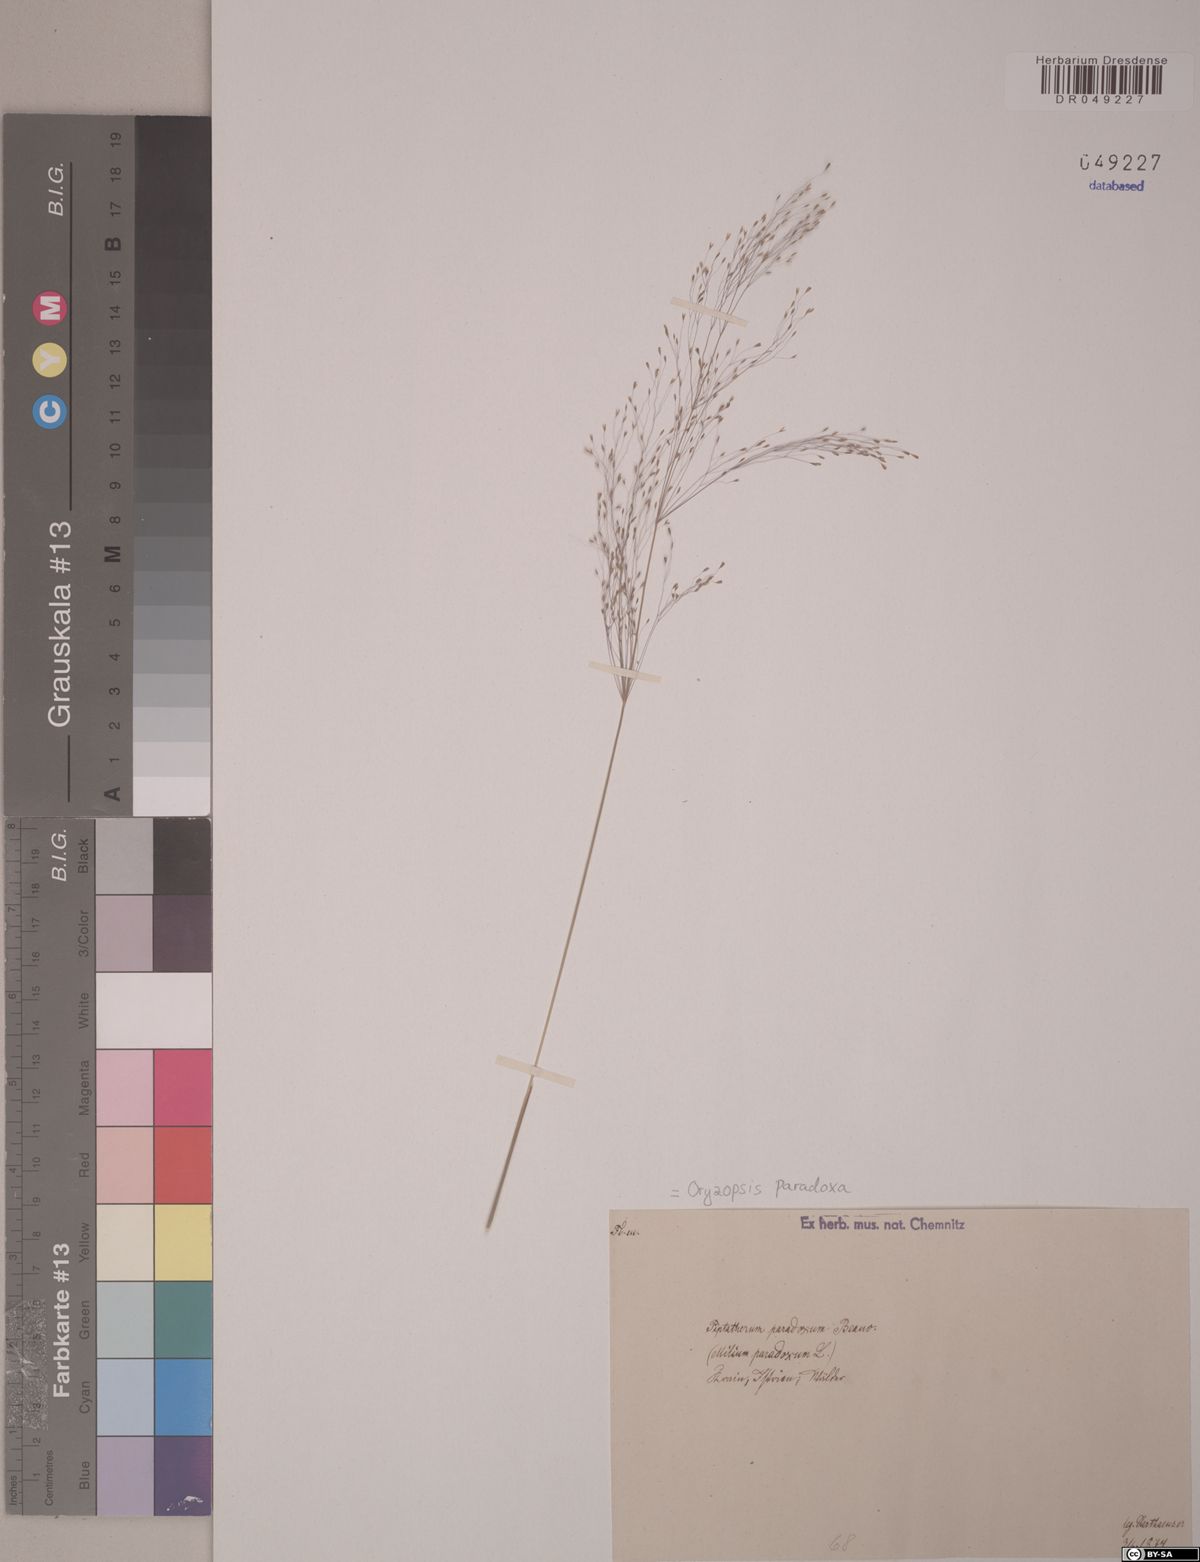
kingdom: Plantae
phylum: Tracheophyta
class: Liliopsida
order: Poales
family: Poaceae
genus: Achnatherum
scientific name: Achnatherum paradoxum
